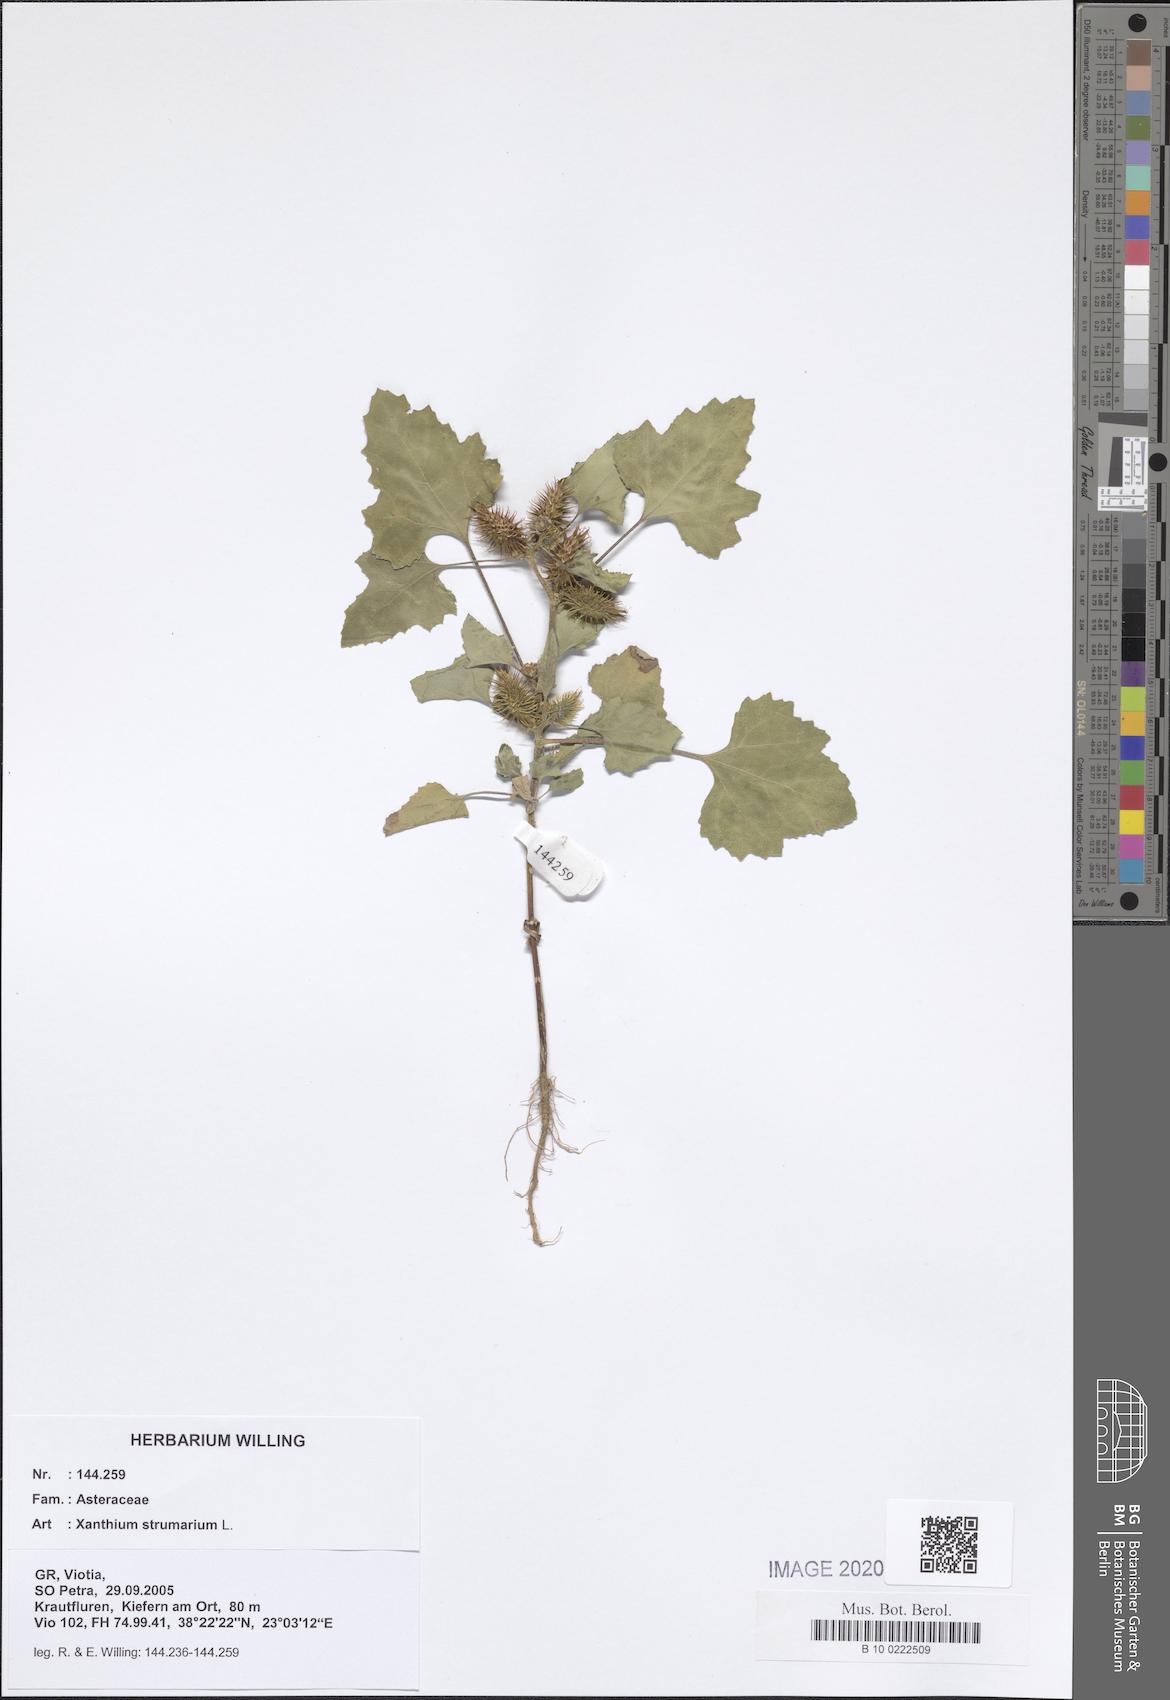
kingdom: Plantae
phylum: Tracheophyta
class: Magnoliopsida
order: Asterales
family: Asteraceae
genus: Xanthium
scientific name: Xanthium strumarium
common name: Rough cocklebur
